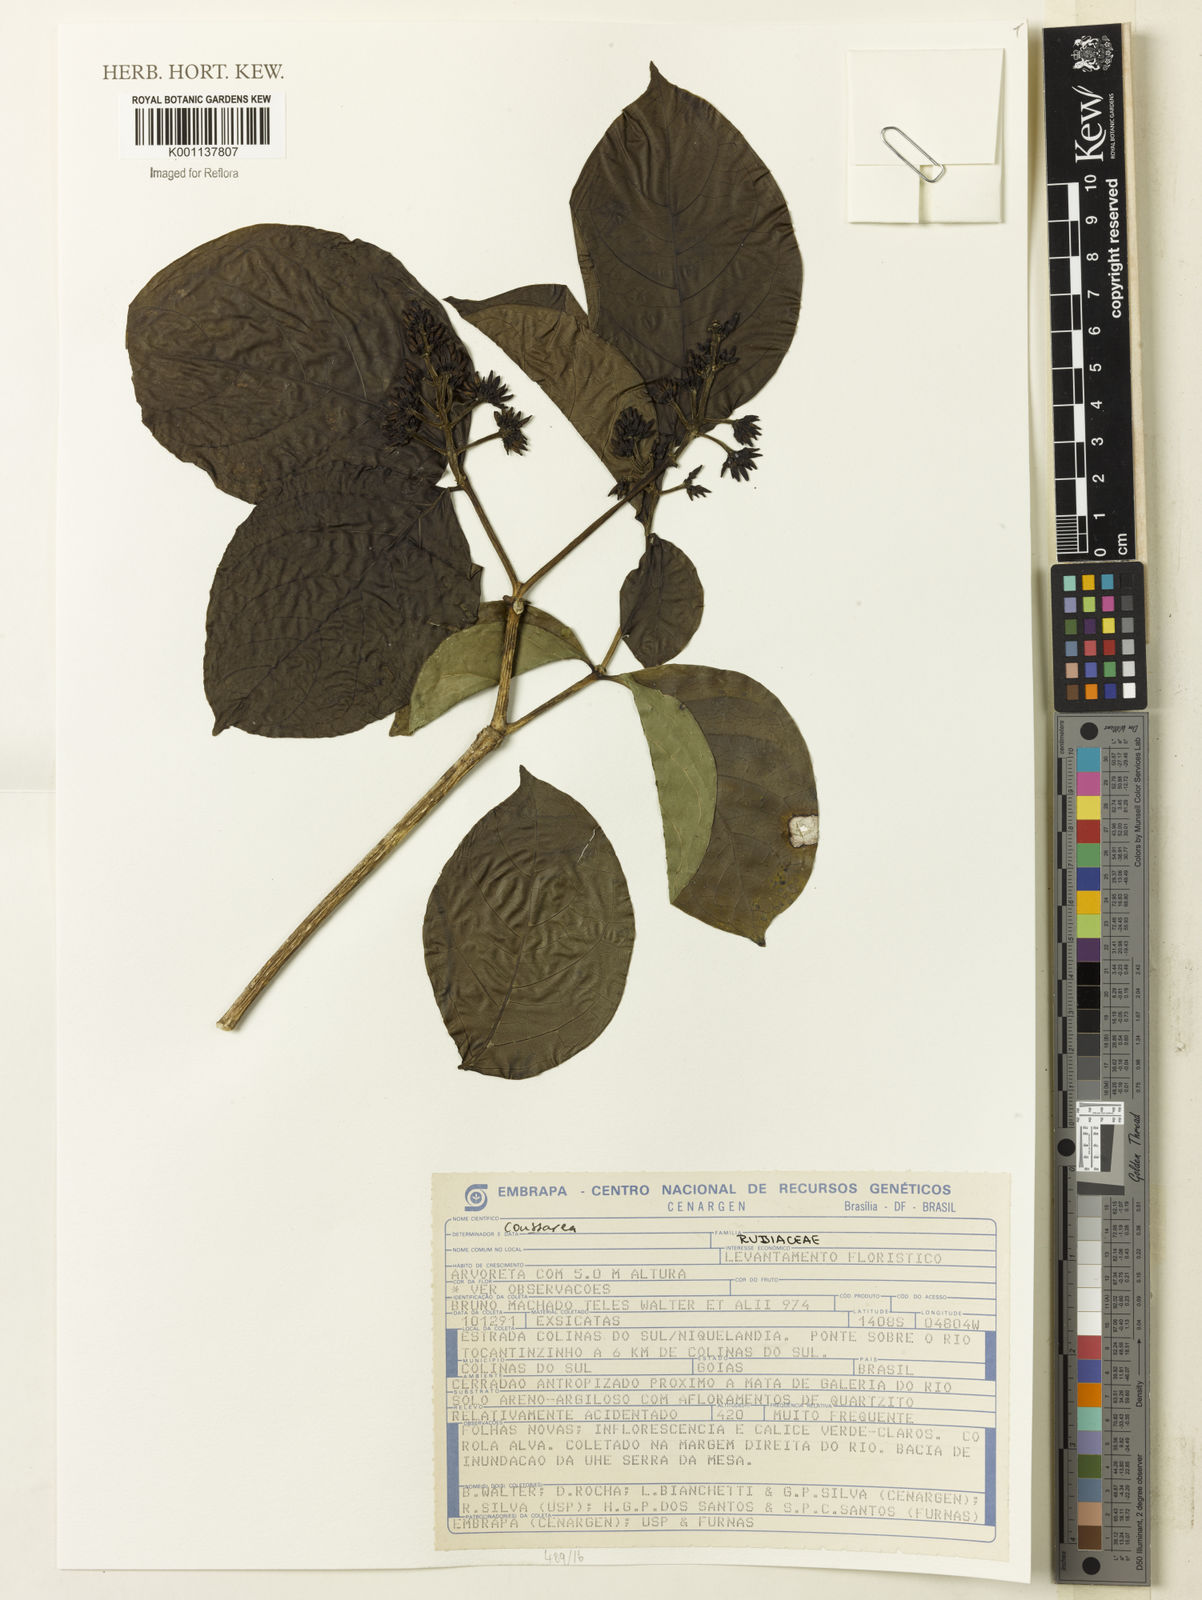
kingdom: Plantae
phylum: Tracheophyta
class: Magnoliopsida
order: Gentianales
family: Rubiaceae
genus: Coussarea
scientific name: Coussarea
